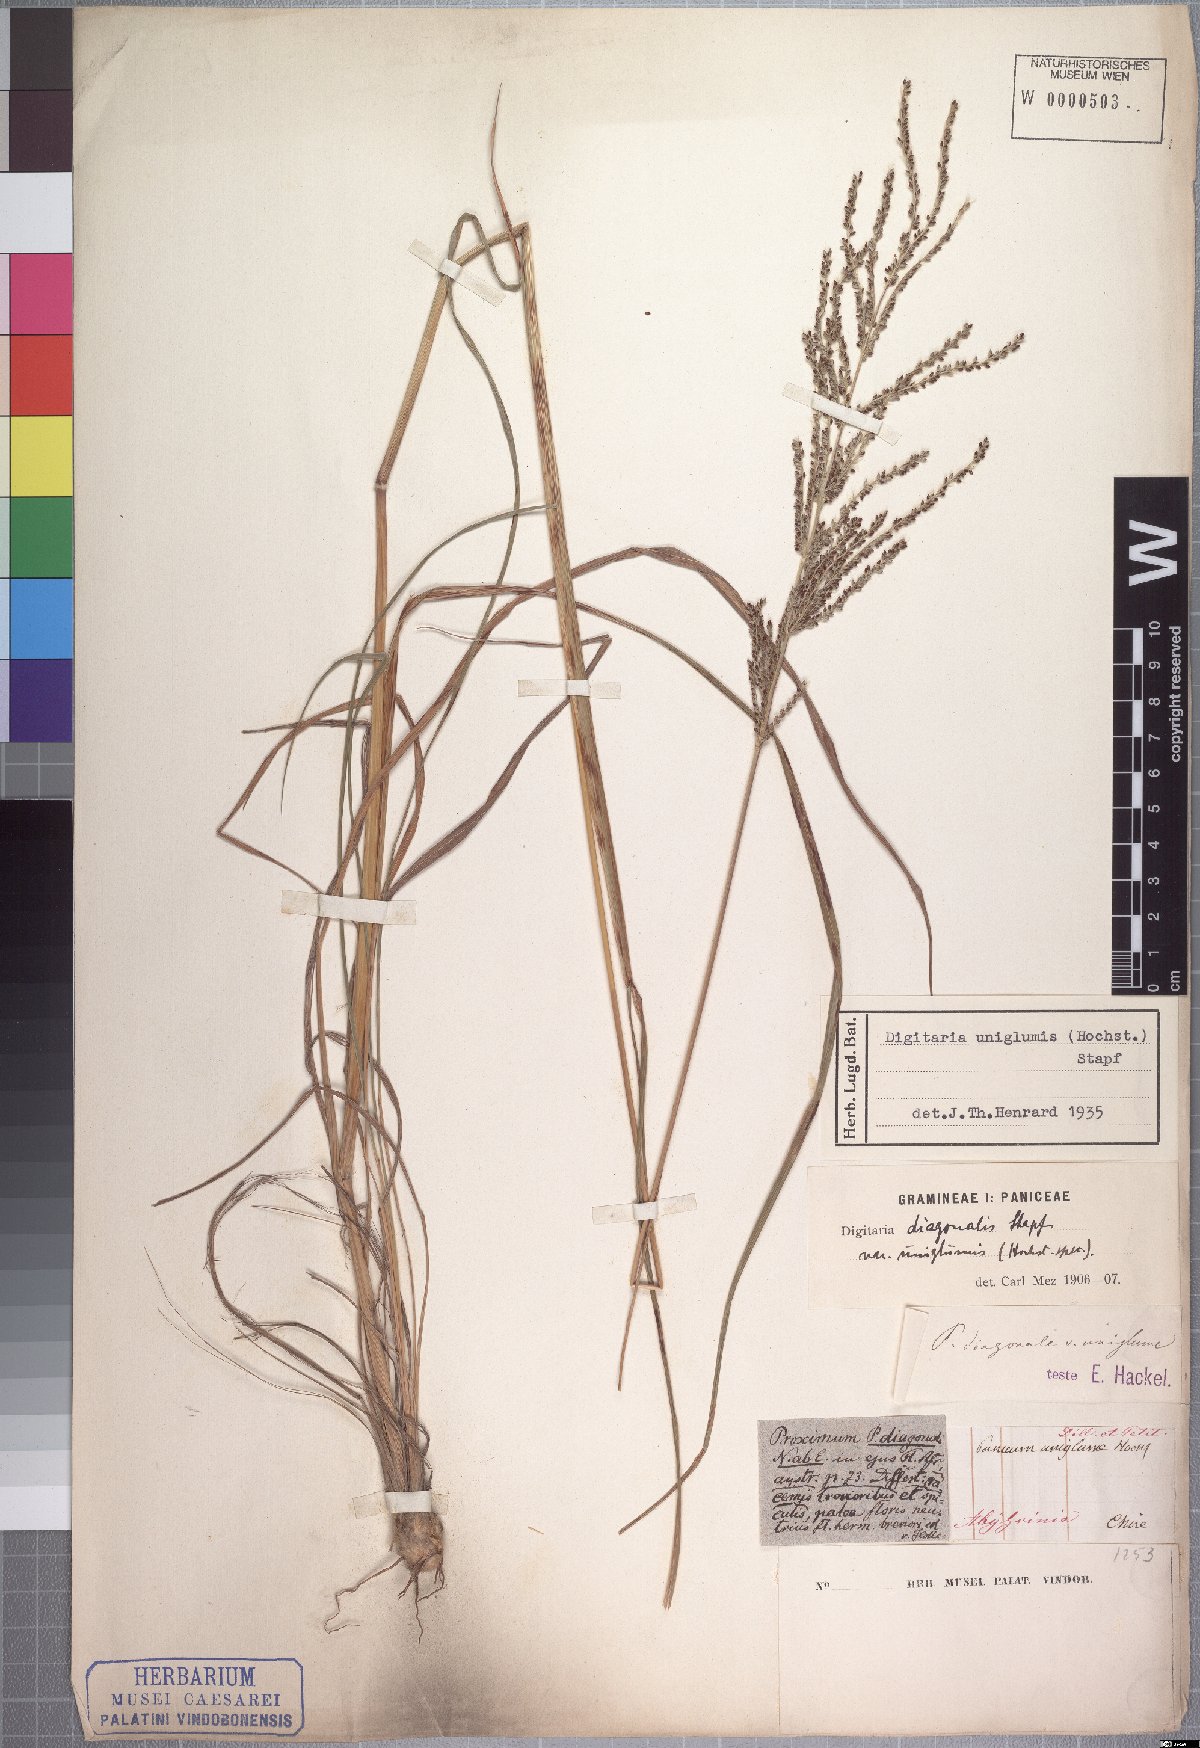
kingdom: Plantae
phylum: Tracheophyta
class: Liliopsida
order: Poales
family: Poaceae
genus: Digitaria
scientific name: Digitaria diagonalis
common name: Brown-seed finger grass
